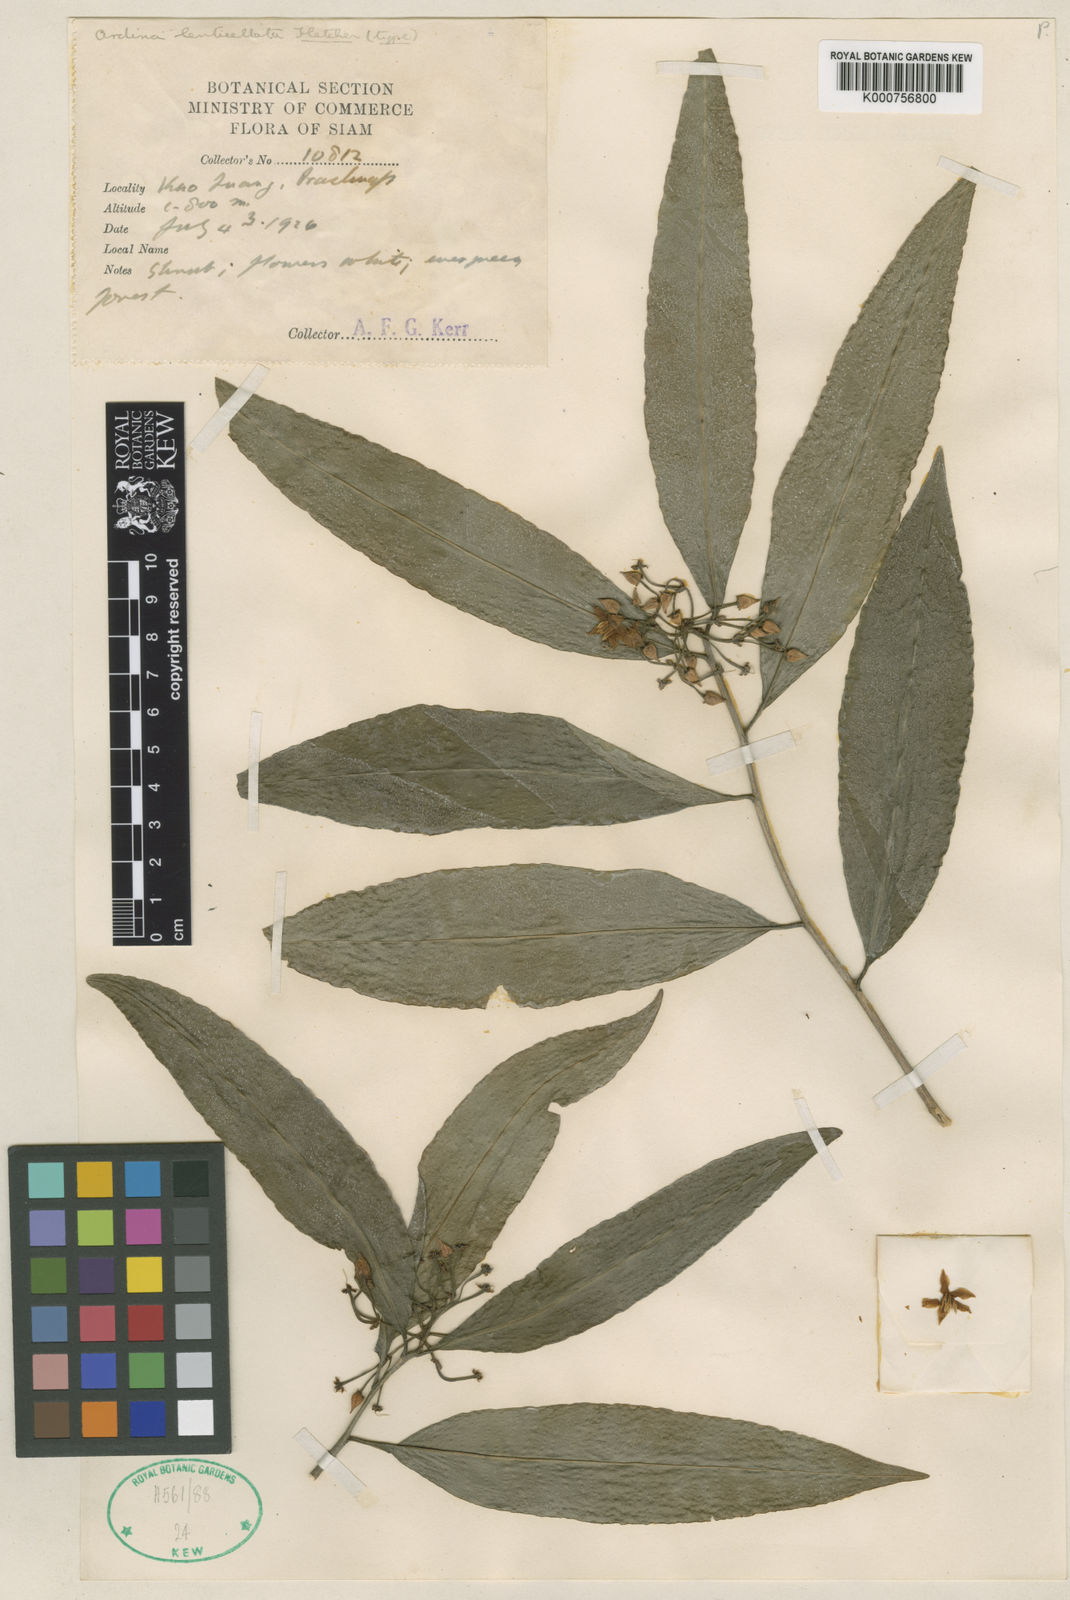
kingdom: Plantae
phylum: Tracheophyta
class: Magnoliopsida
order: Ericales
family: Primulaceae
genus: Ardisia
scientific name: Ardisia polysticta
